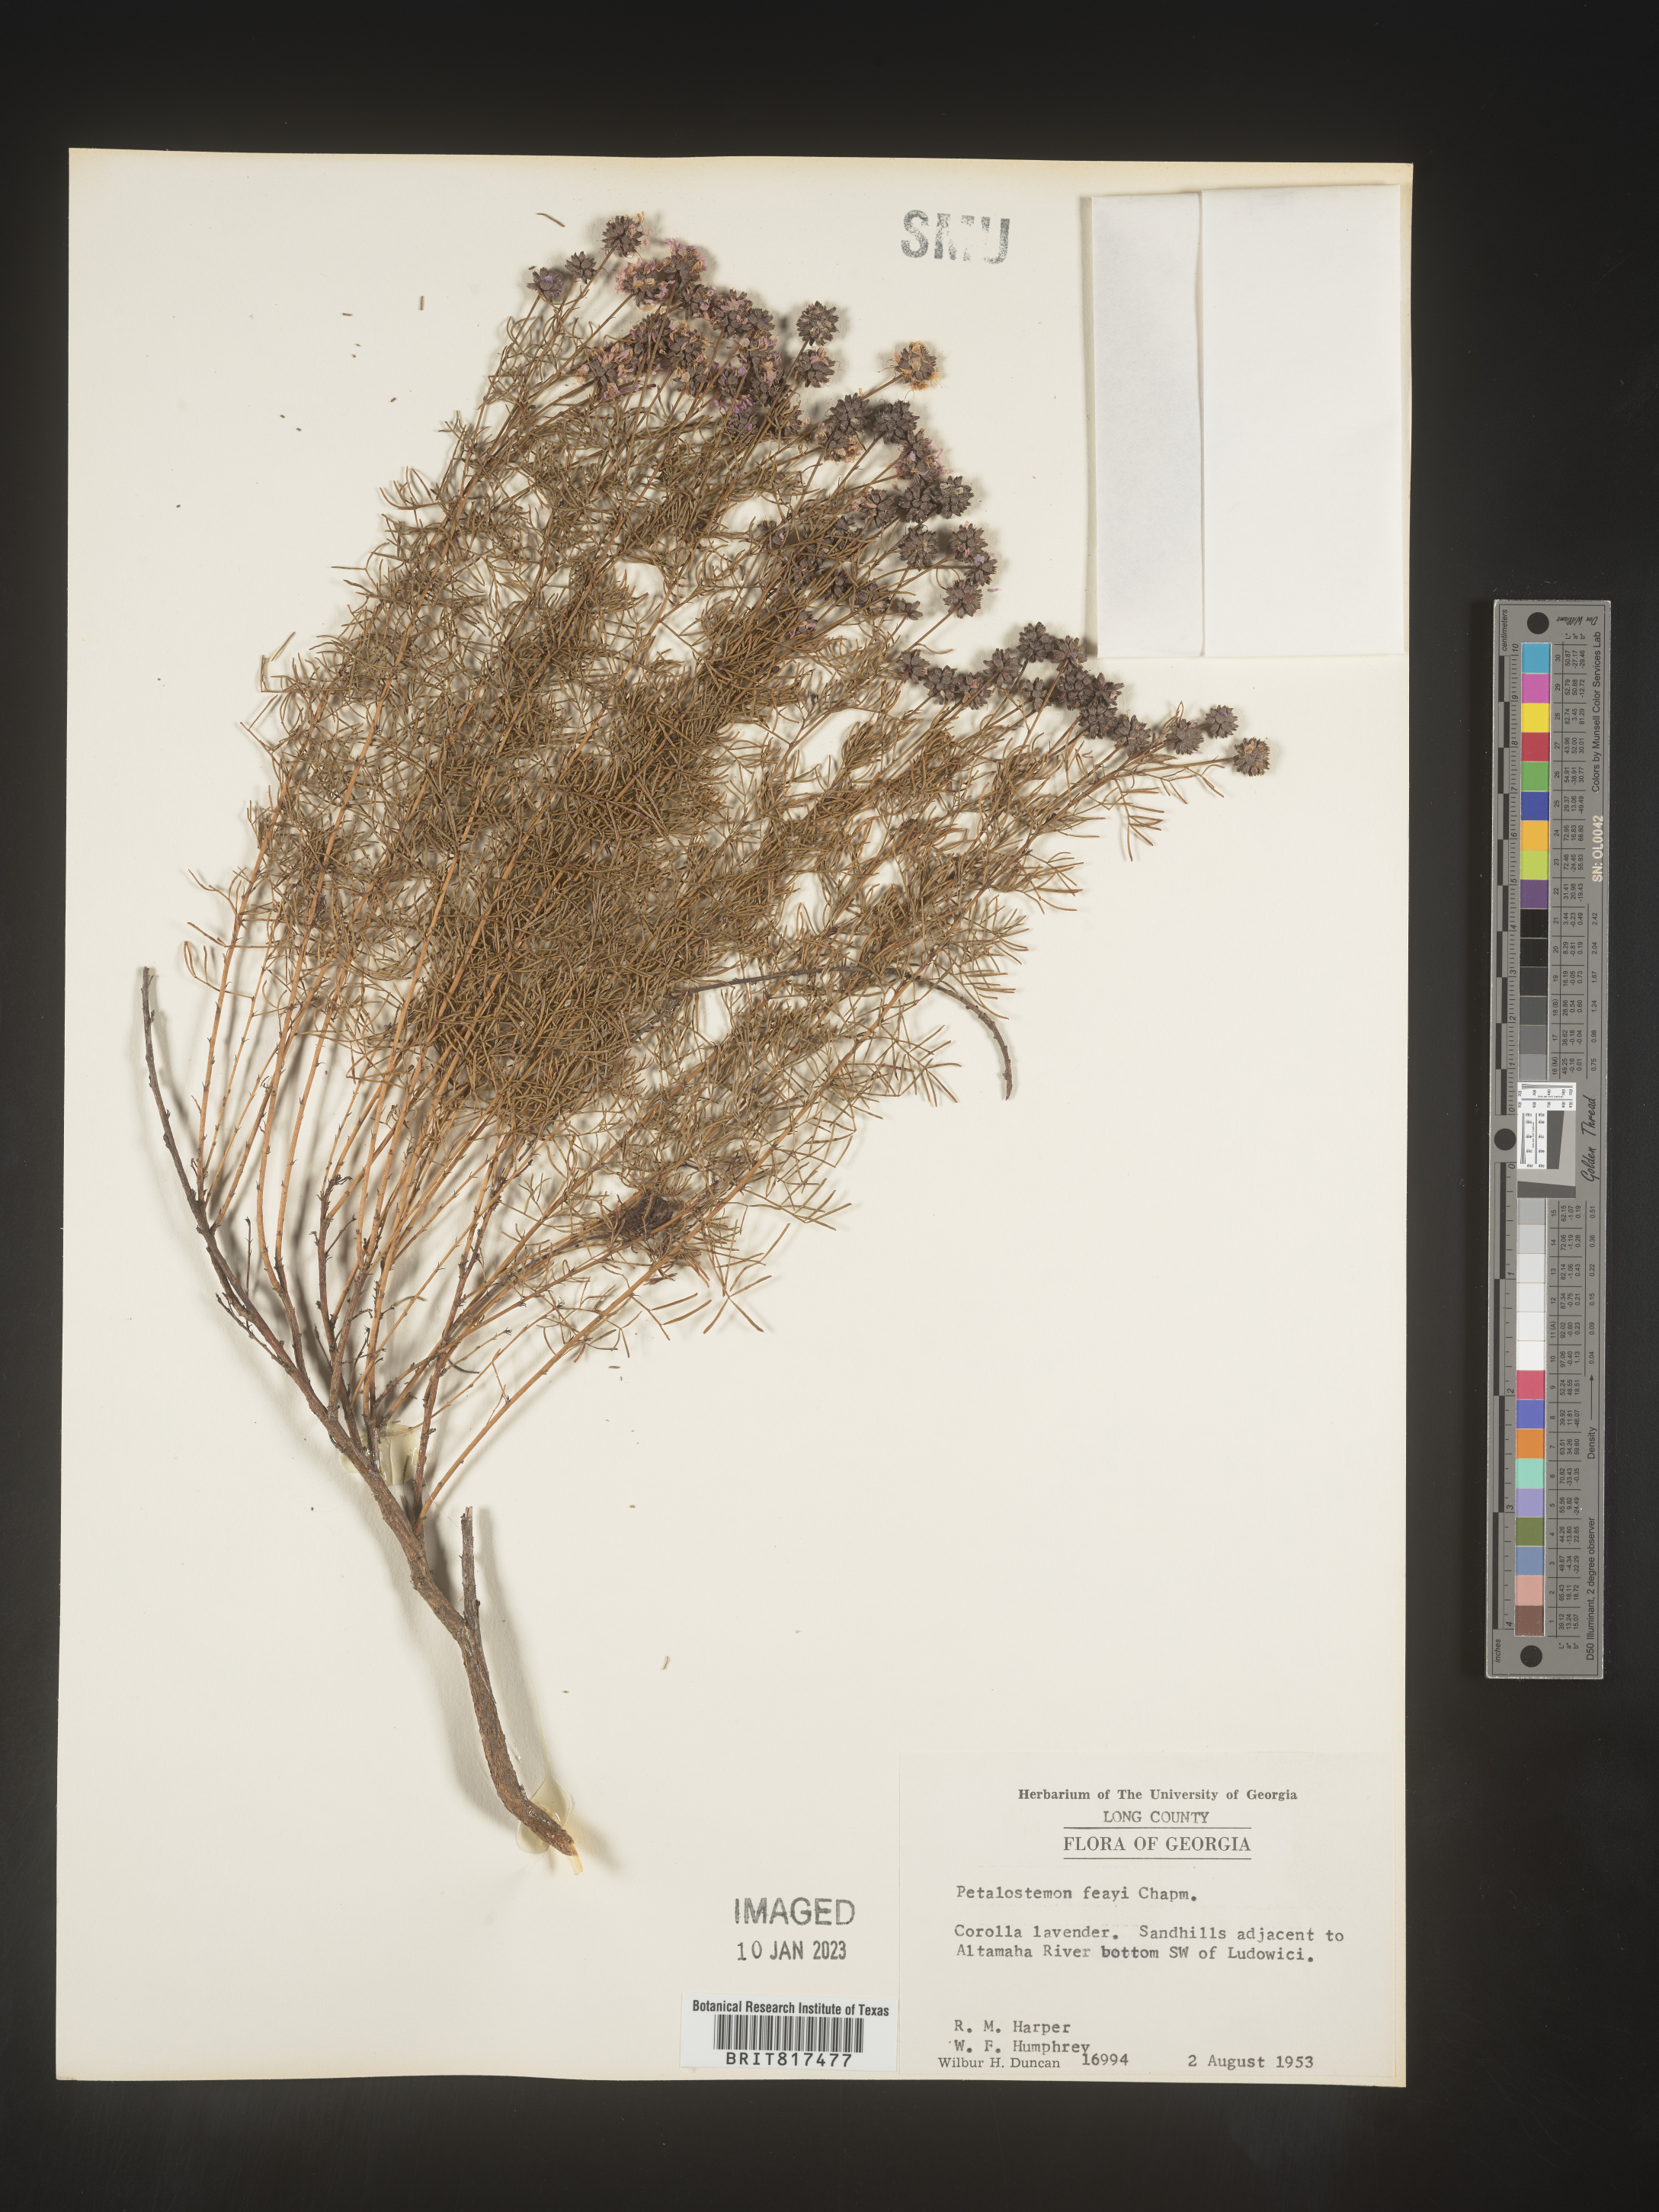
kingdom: Plantae
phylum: Tracheophyta
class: Magnoliopsida
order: Fabales
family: Fabaceae
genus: Dalea
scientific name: Dalea feayi
